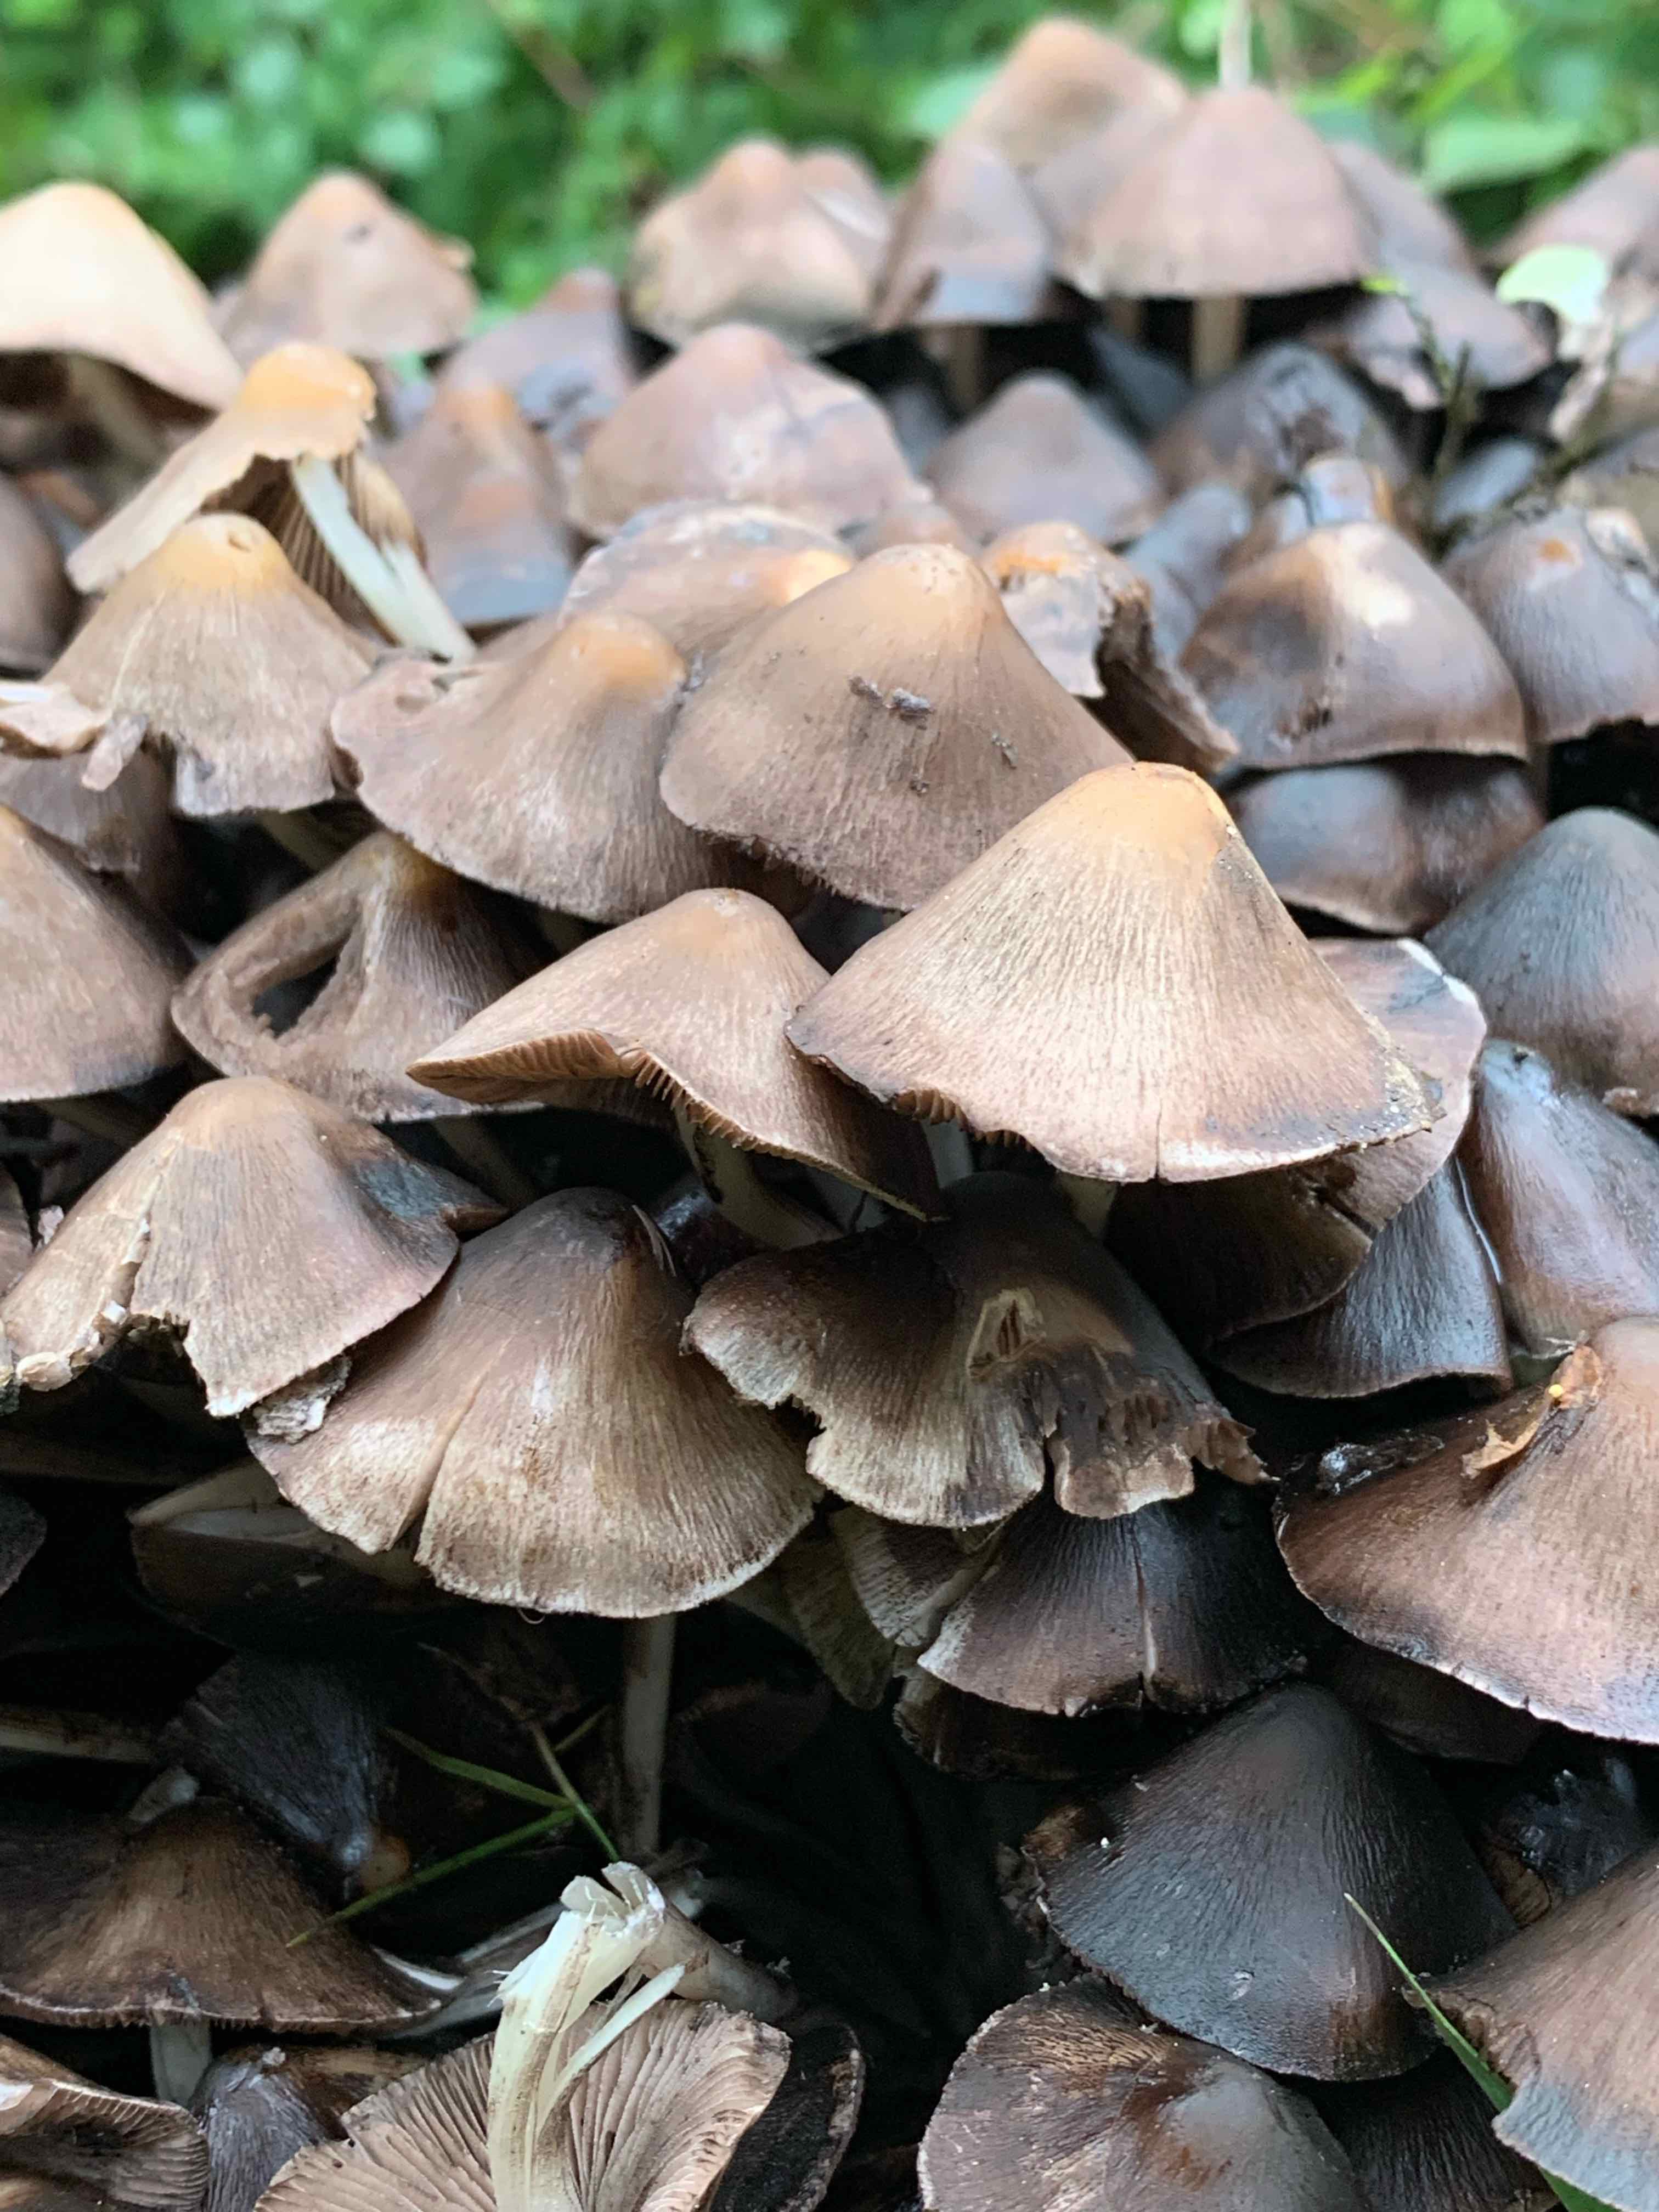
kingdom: Fungi
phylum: Basidiomycota
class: Agaricomycetes
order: Agaricales
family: Psathyrellaceae
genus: Britzelmayria
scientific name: Britzelmayria multipedata
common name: knippe-mørkhat
